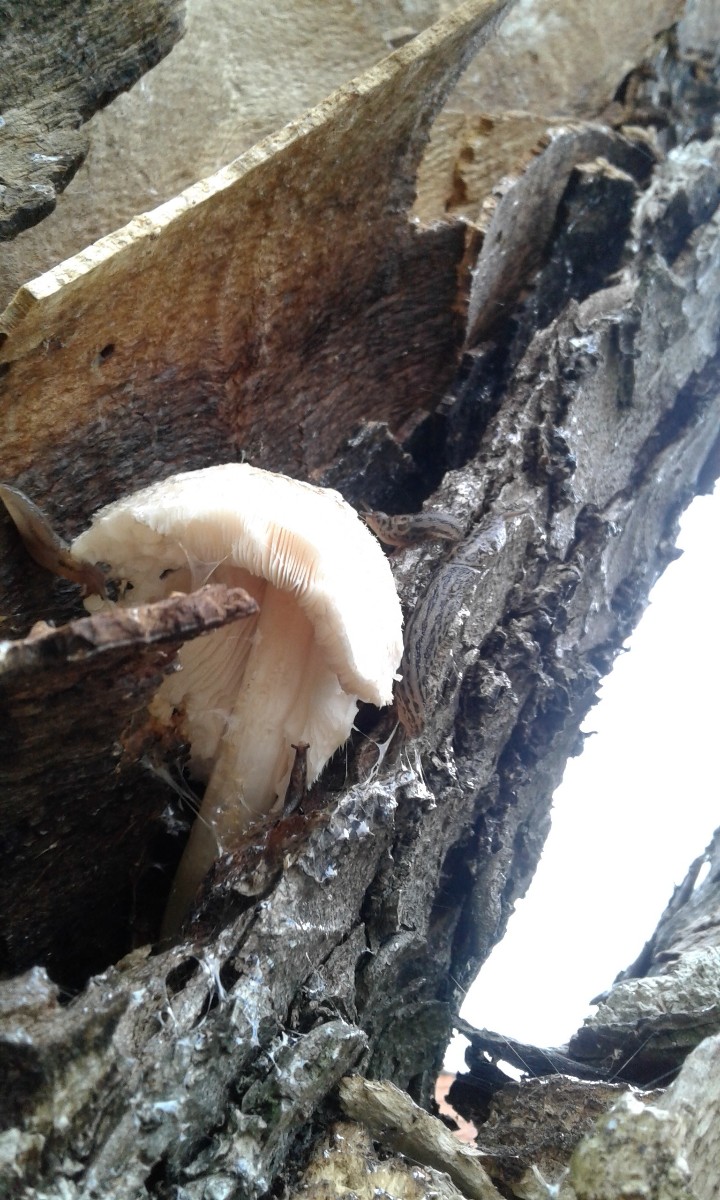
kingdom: Fungi
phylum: Basidiomycota
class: Agaricomycetes
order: Agaricales
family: Pluteaceae
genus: Volvariella
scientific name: Volvariella bombycina
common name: silkehåret posesvamp
